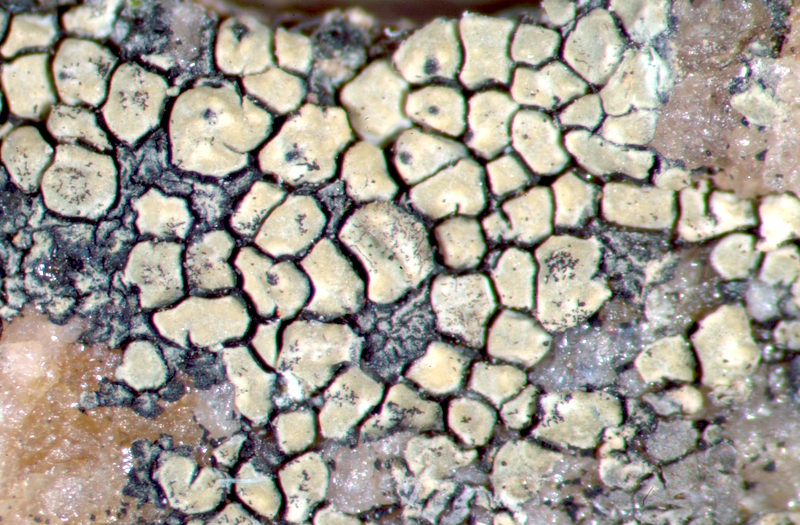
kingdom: Fungi
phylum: Ascomycota
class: Lecanoromycetes
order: Acarosporales
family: Acarosporaceae
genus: Acarospora
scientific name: Acarospora
